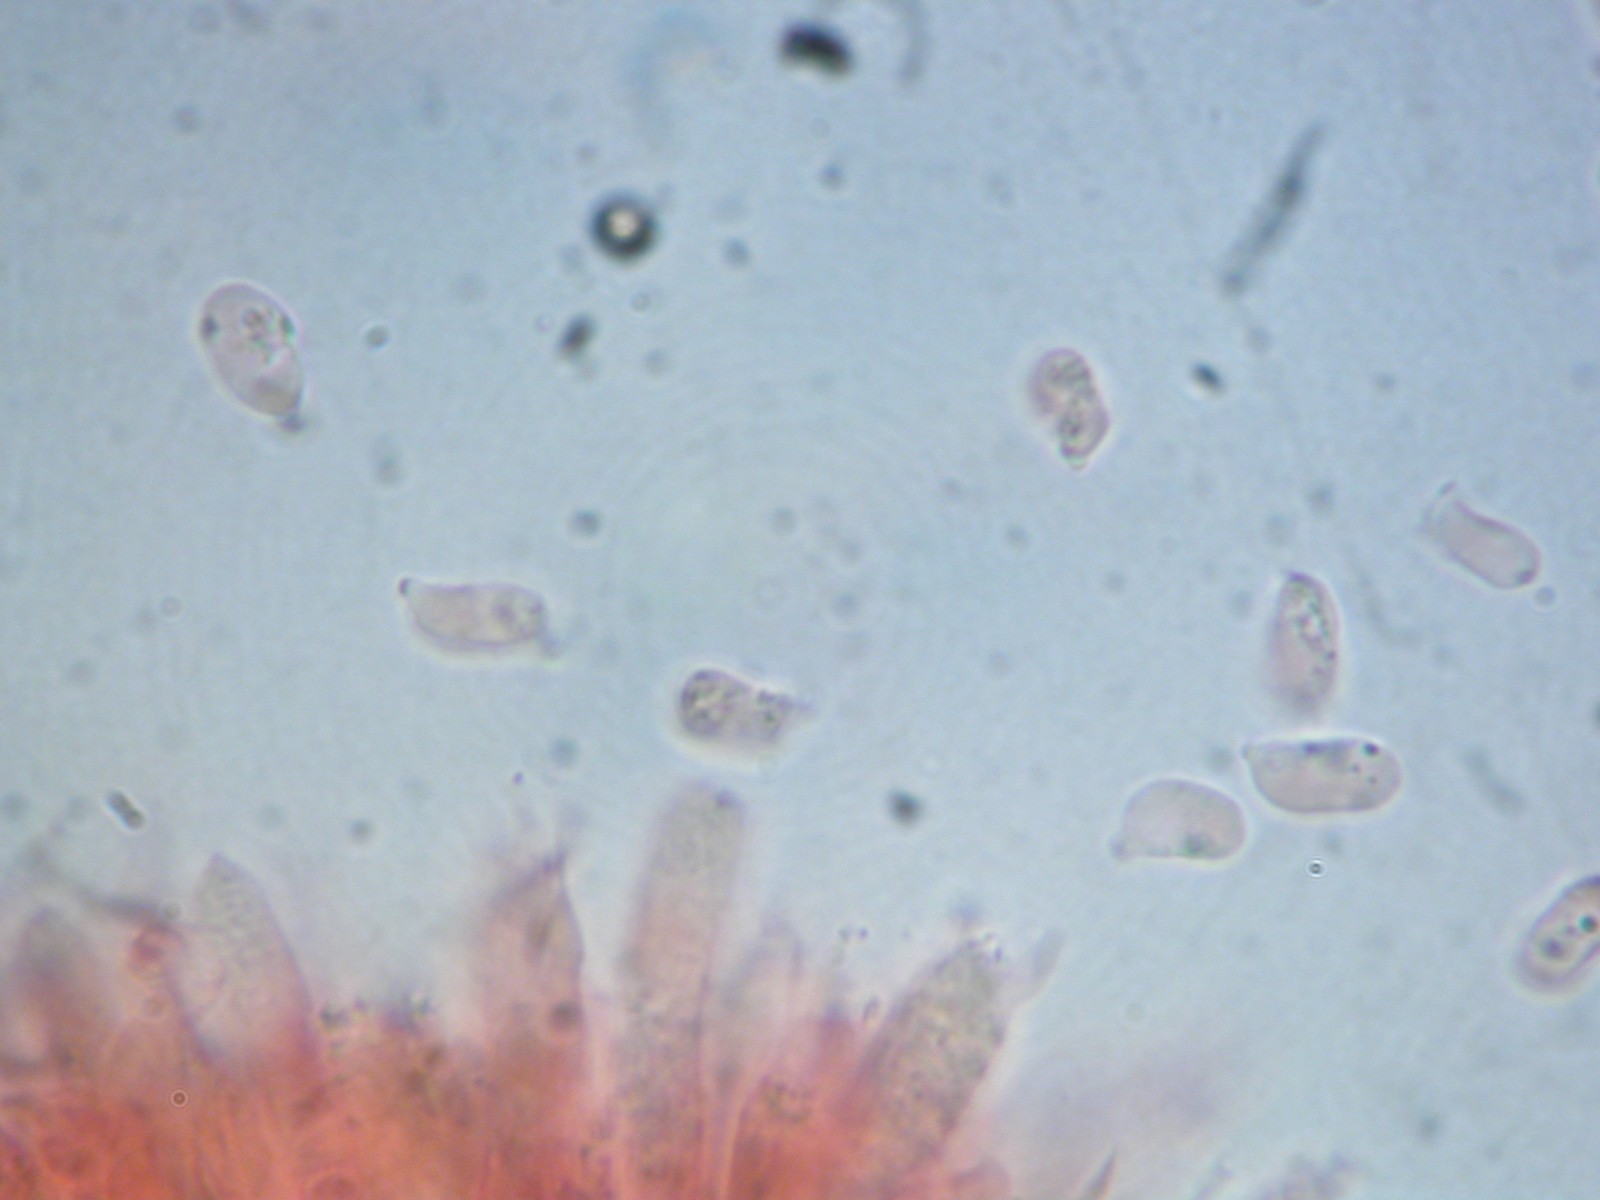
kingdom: Fungi
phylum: Basidiomycota
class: Agaricomycetes
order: Agaricales
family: Hygrophoraceae
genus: Hygrocybe
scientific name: Hygrocybe
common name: vokshat
